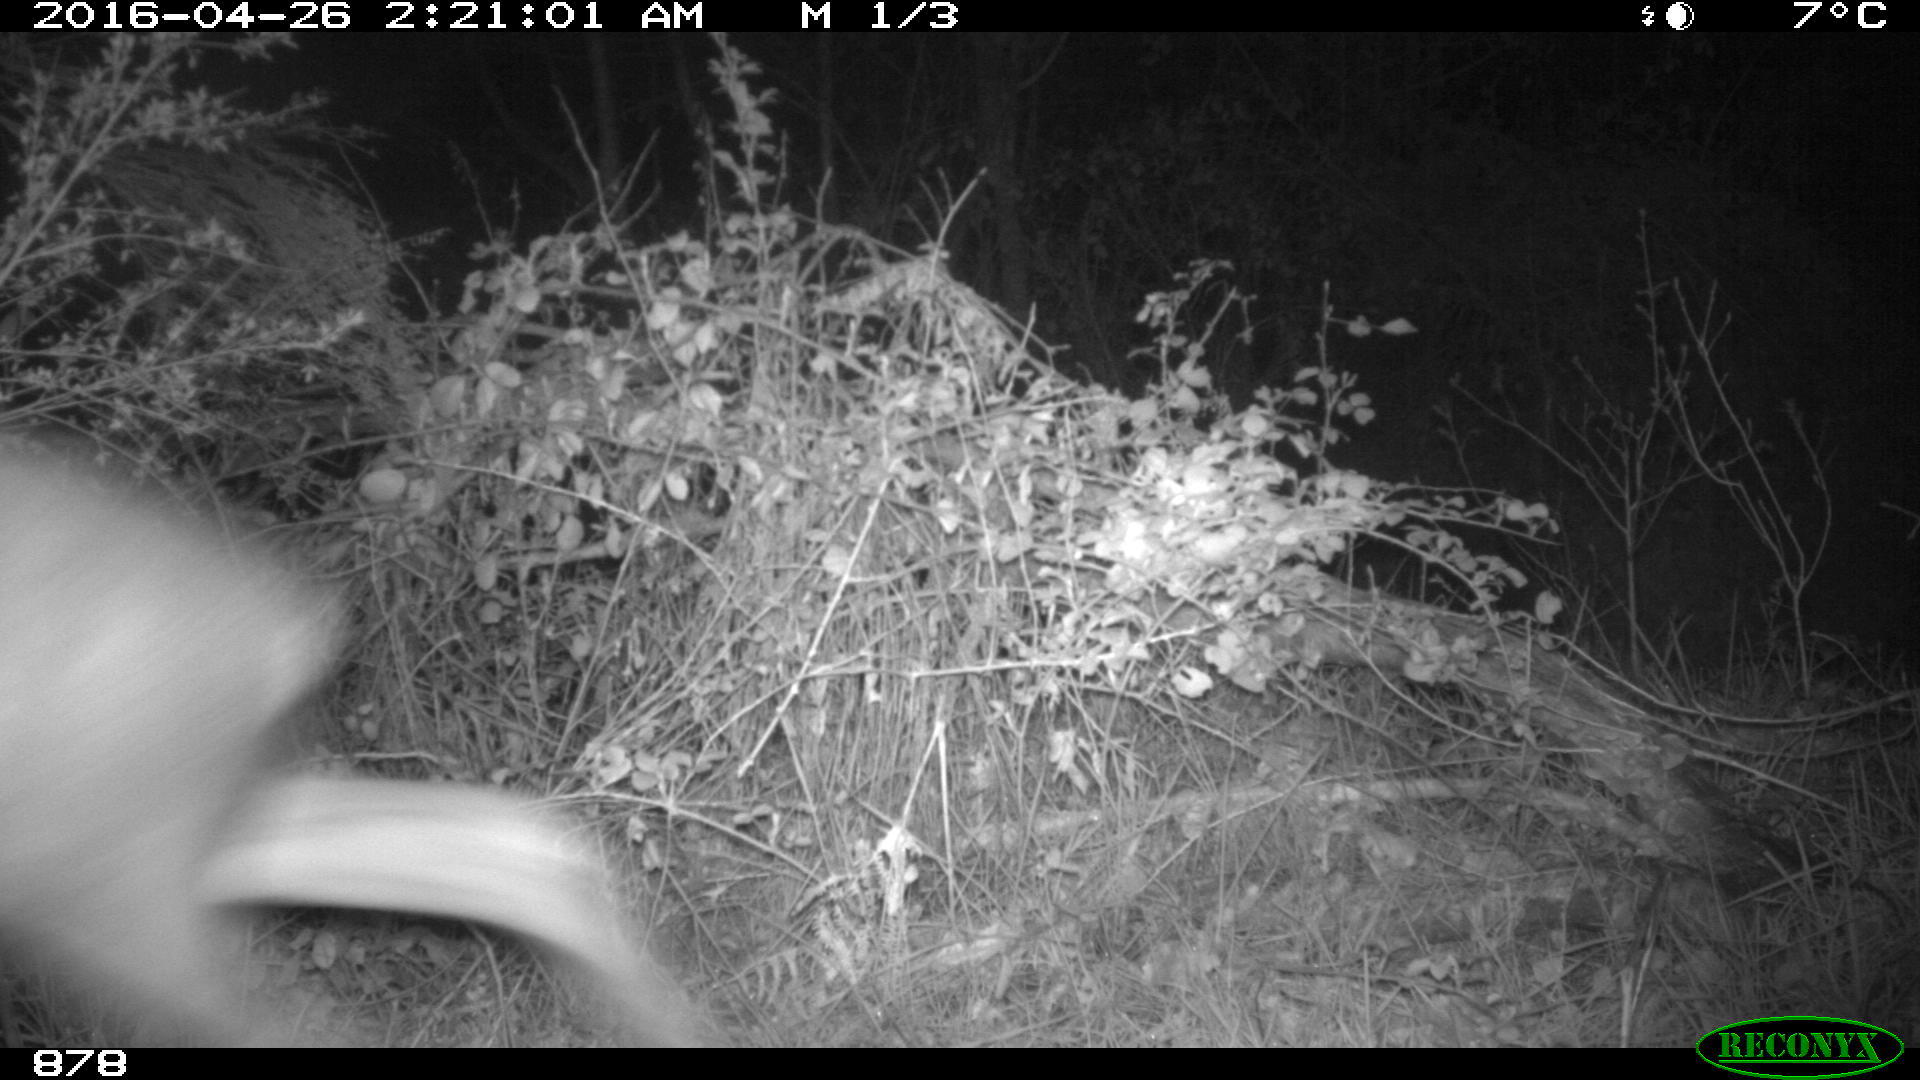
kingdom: Animalia
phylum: Chordata
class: Mammalia
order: Artiodactyla
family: Cervidae
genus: Capreolus
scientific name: Capreolus capreolus
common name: Western roe deer
